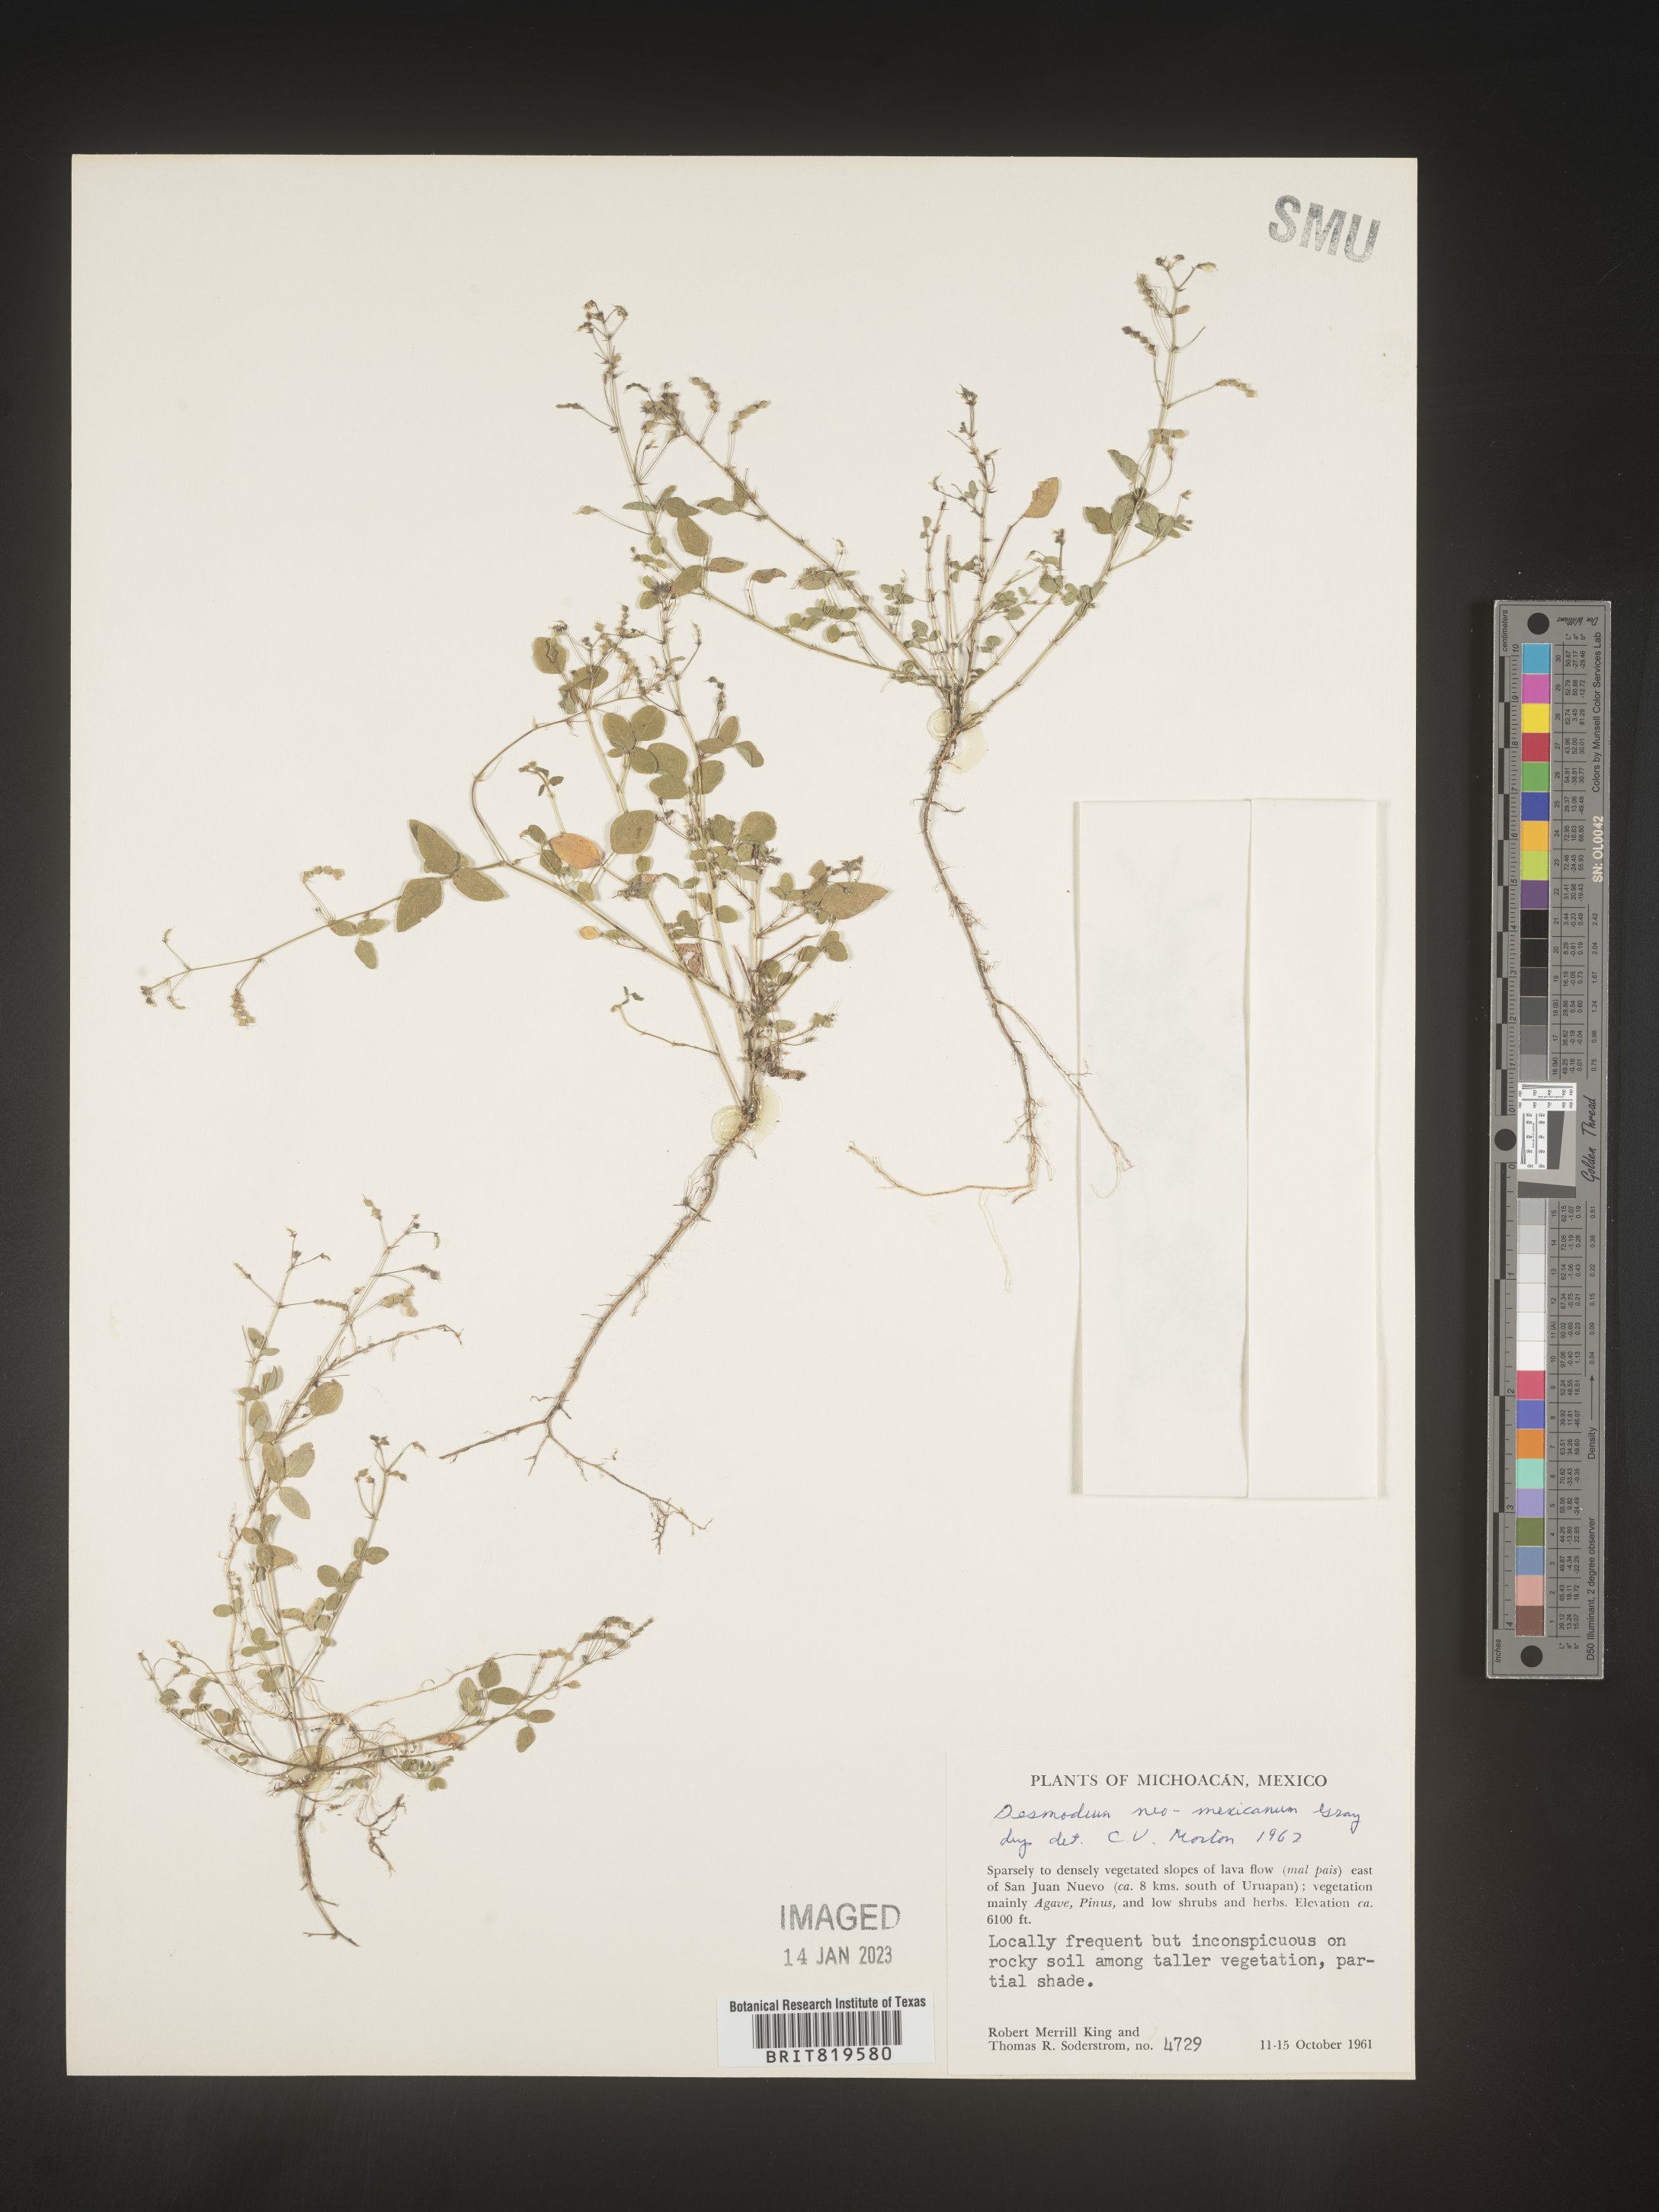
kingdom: Plantae
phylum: Tracheophyta
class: Magnoliopsida
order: Fabales
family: Fabaceae
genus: Desmodium
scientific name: Desmodium
